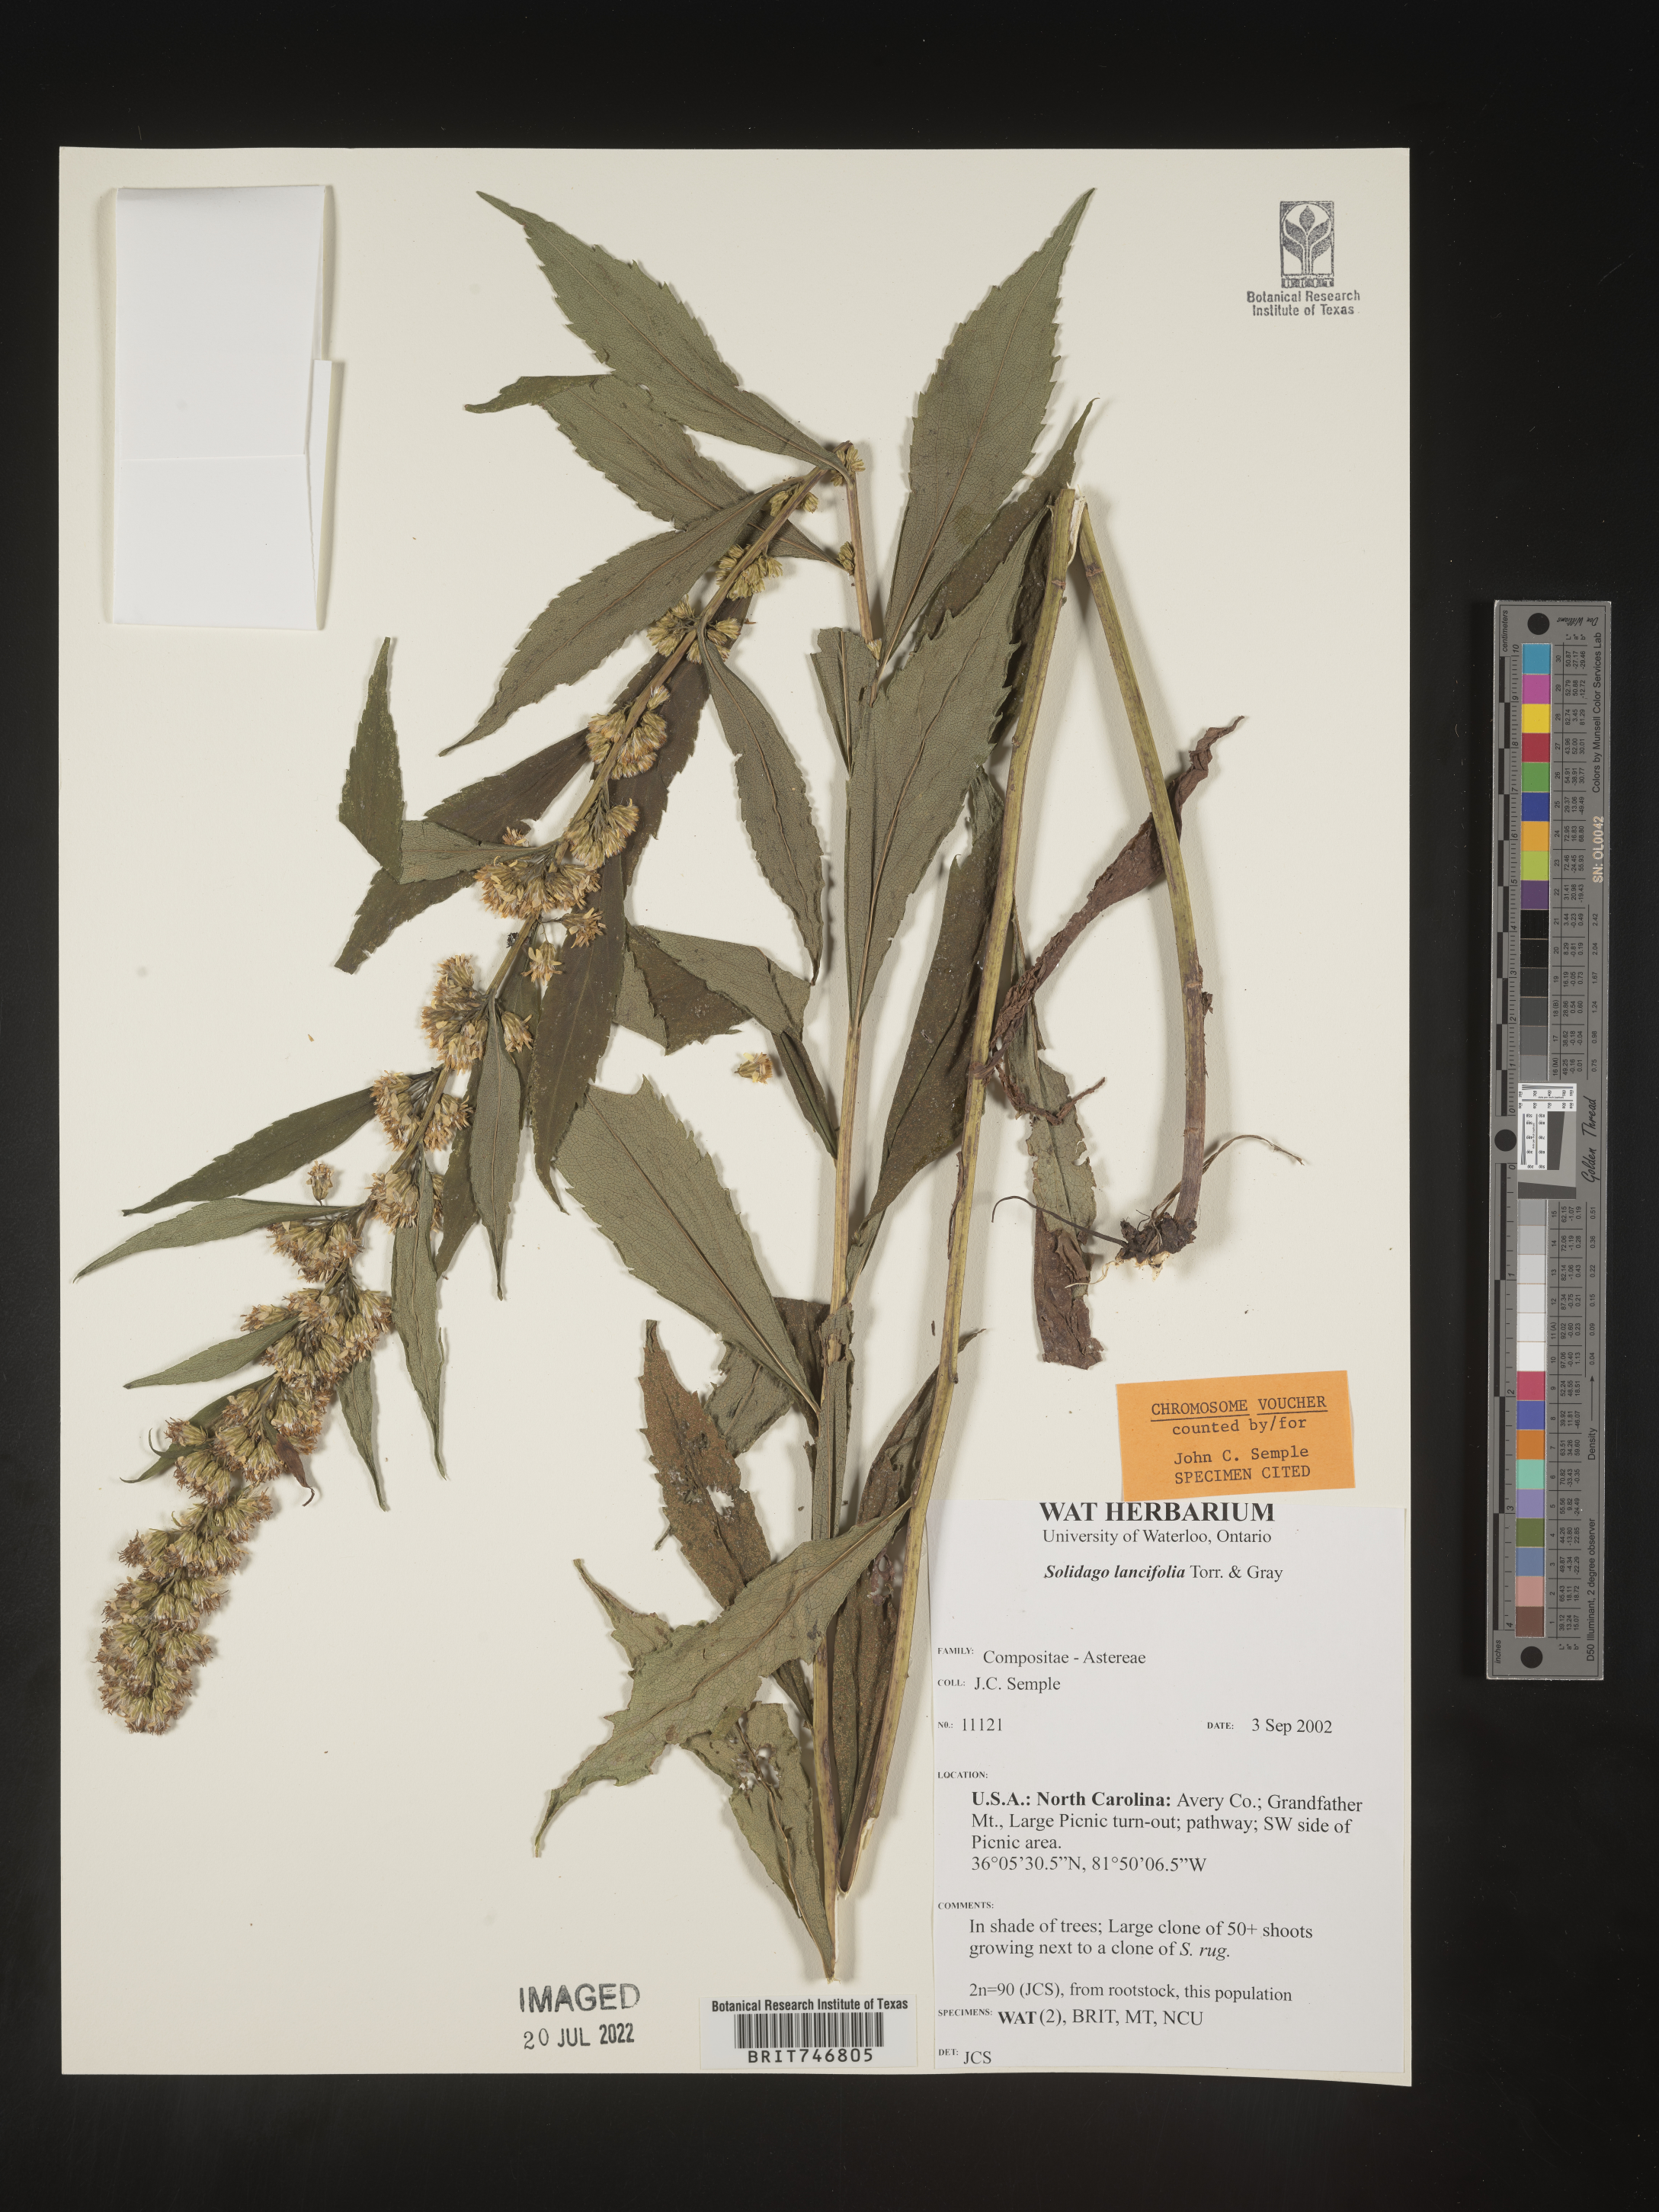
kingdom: Plantae
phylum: Tracheophyta
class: Magnoliopsida
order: Asterales
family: Asteraceae
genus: Solidago
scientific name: Solidago lancifolia
